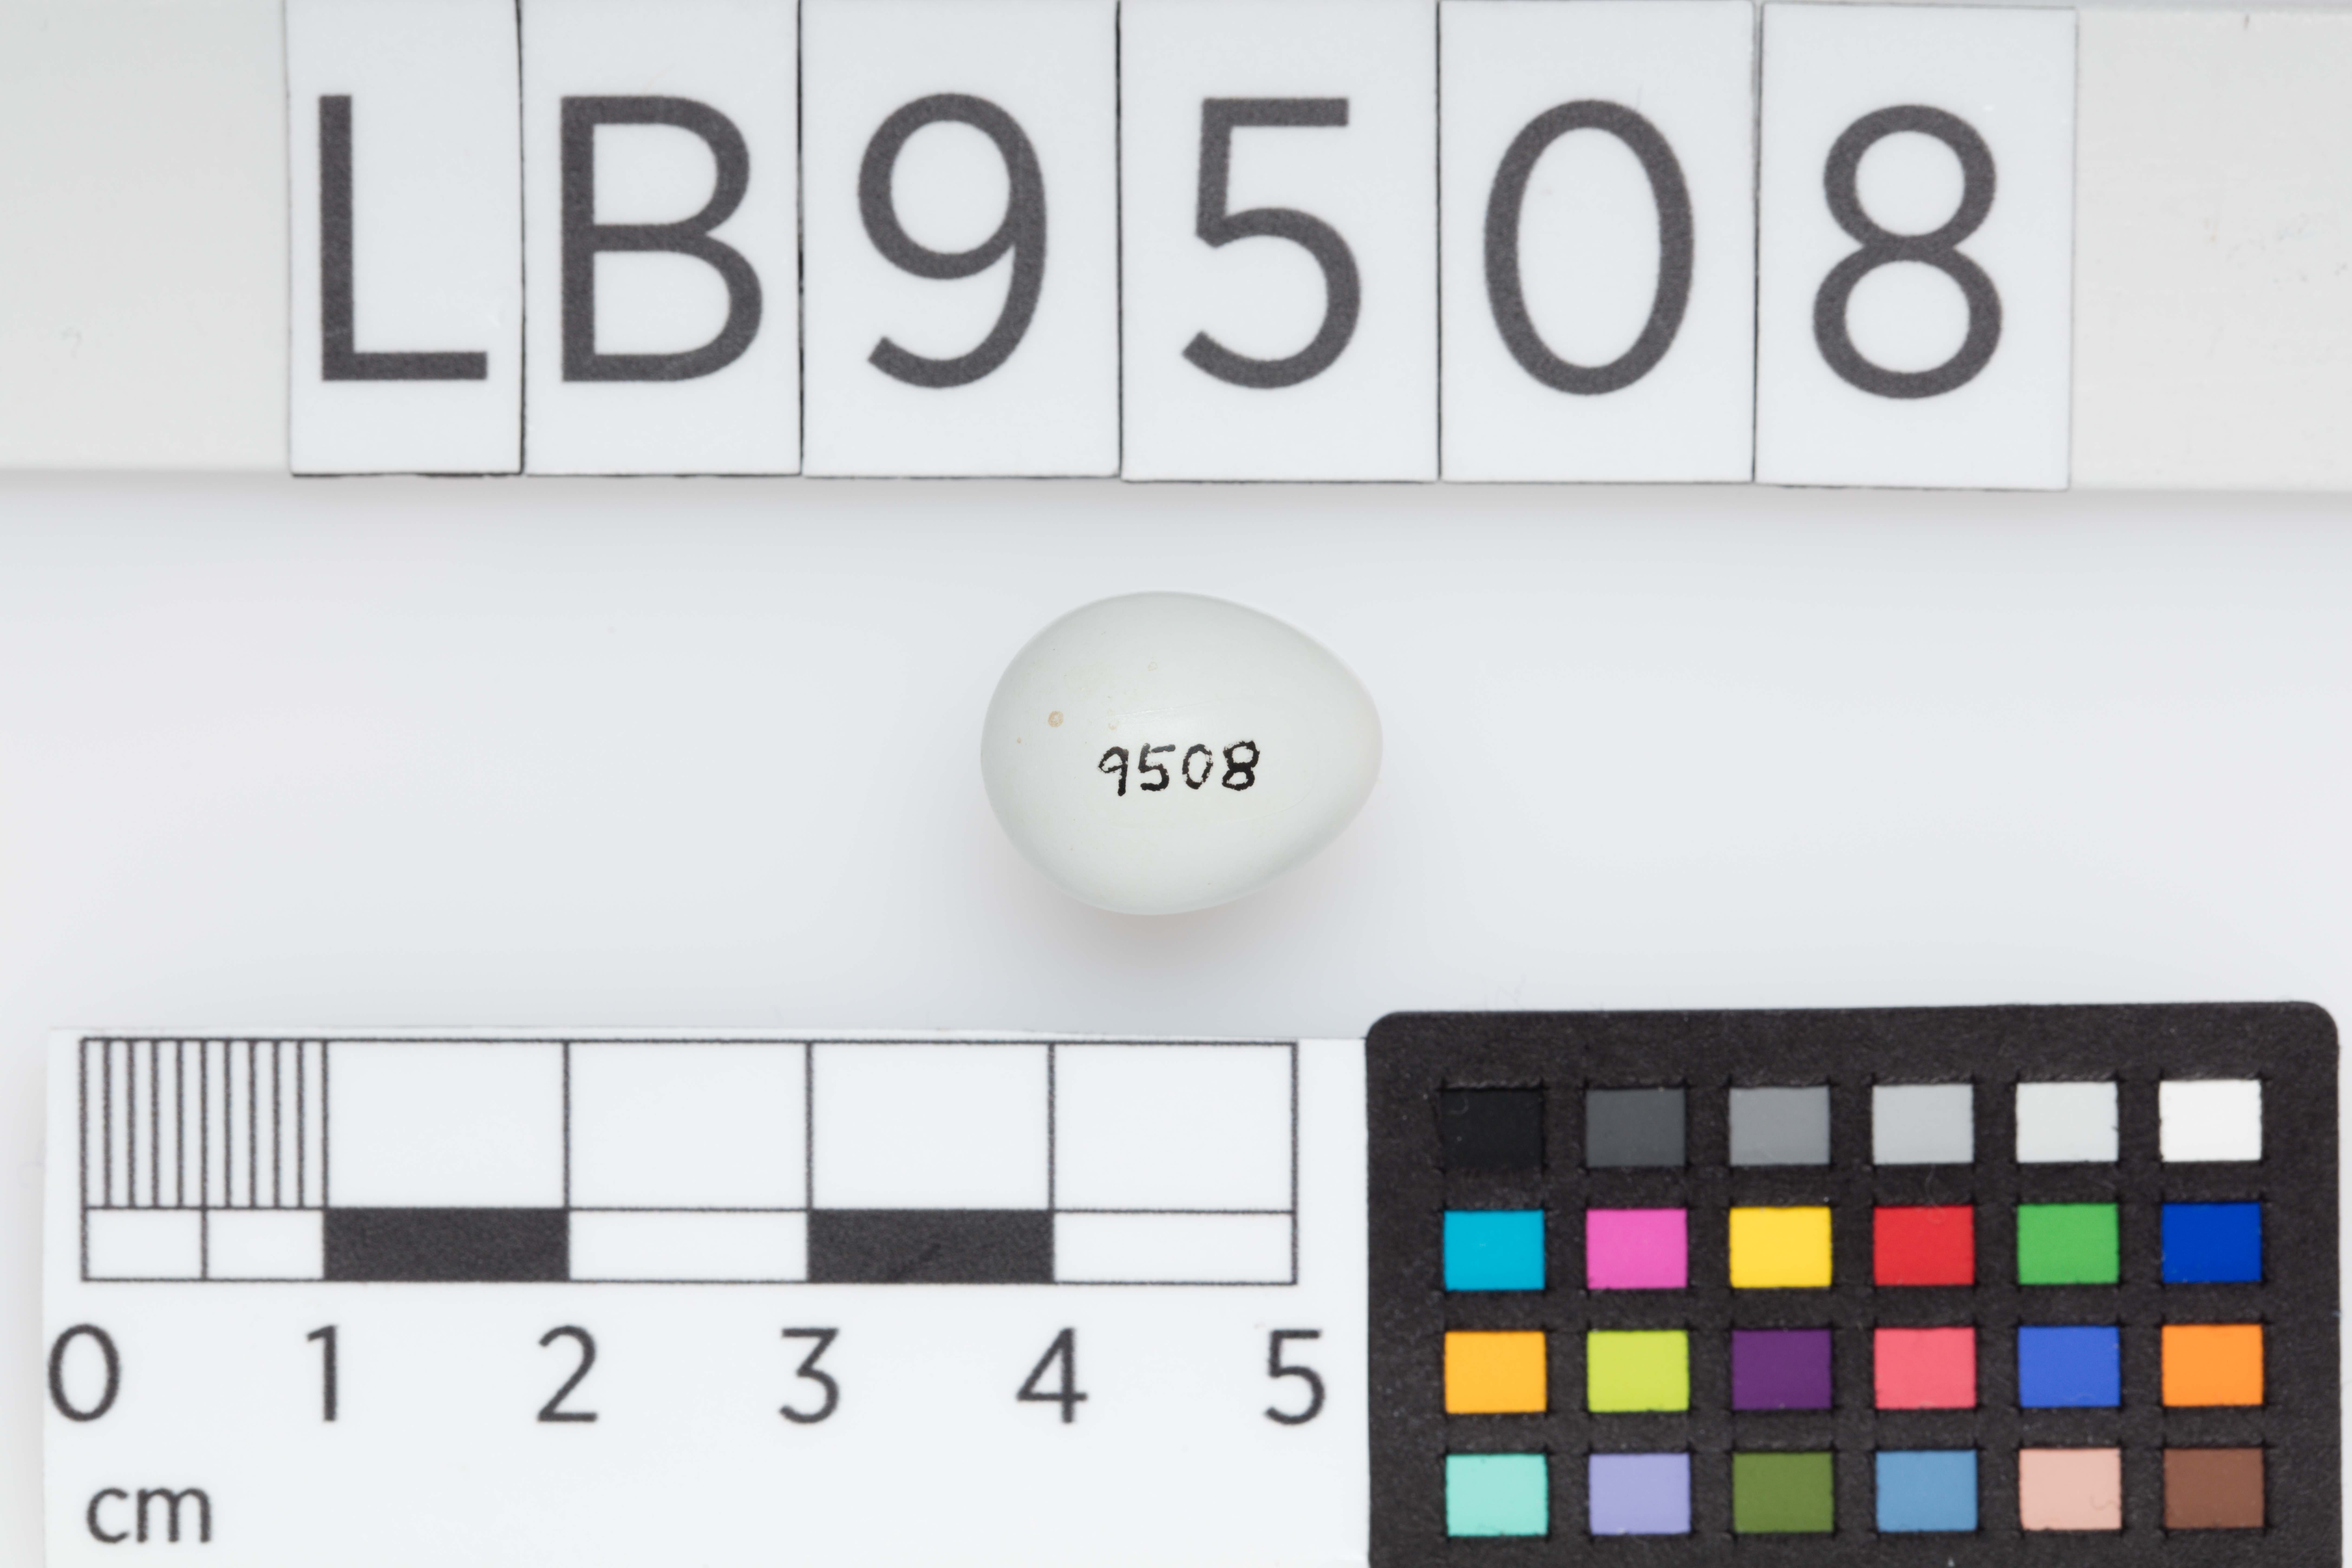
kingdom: Animalia
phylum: Chordata
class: Aves
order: Passeriformes
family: Zosteropidae
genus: Zosterops
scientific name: Zosterops lateralis
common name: Silvereye
